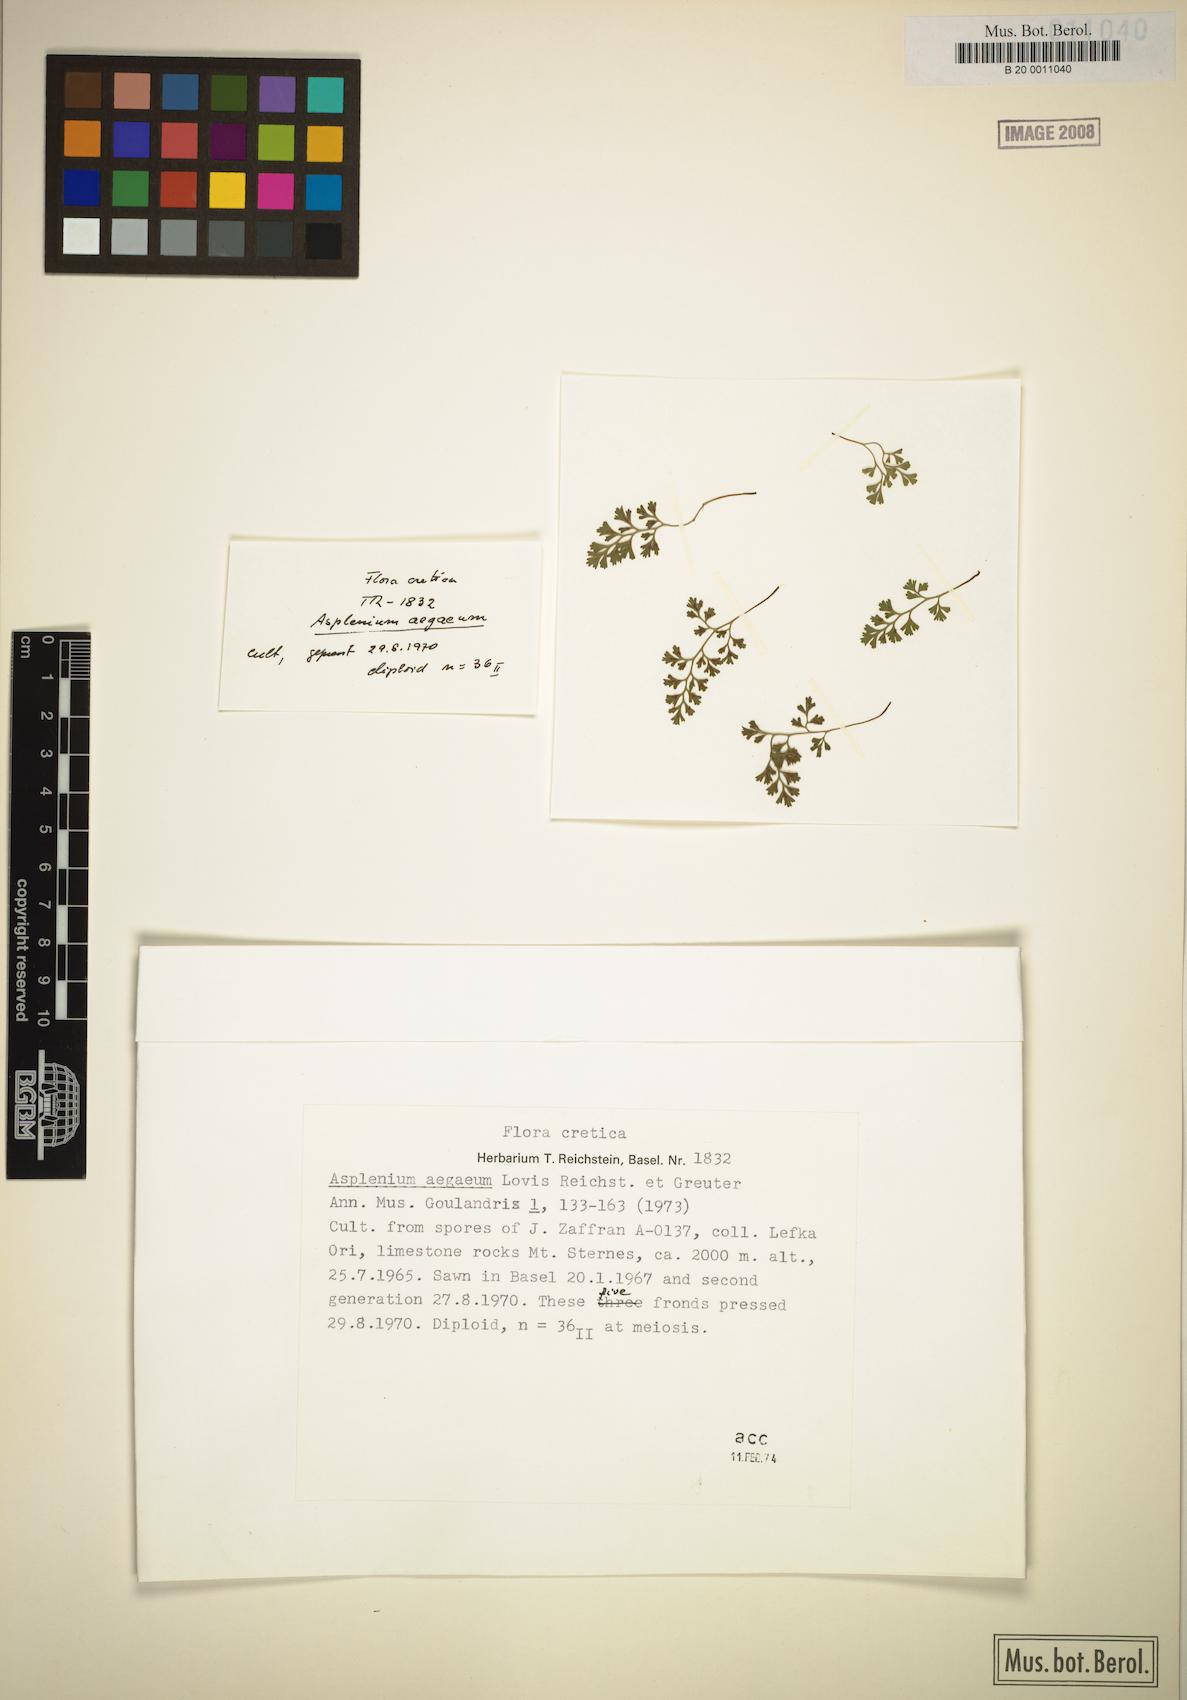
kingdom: Plantae
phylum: Tracheophyta
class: Polypodiopsida
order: Polypodiales
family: Aspleniaceae
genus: Asplenium
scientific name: Asplenium aegaeum
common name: Aegean spleenwort
